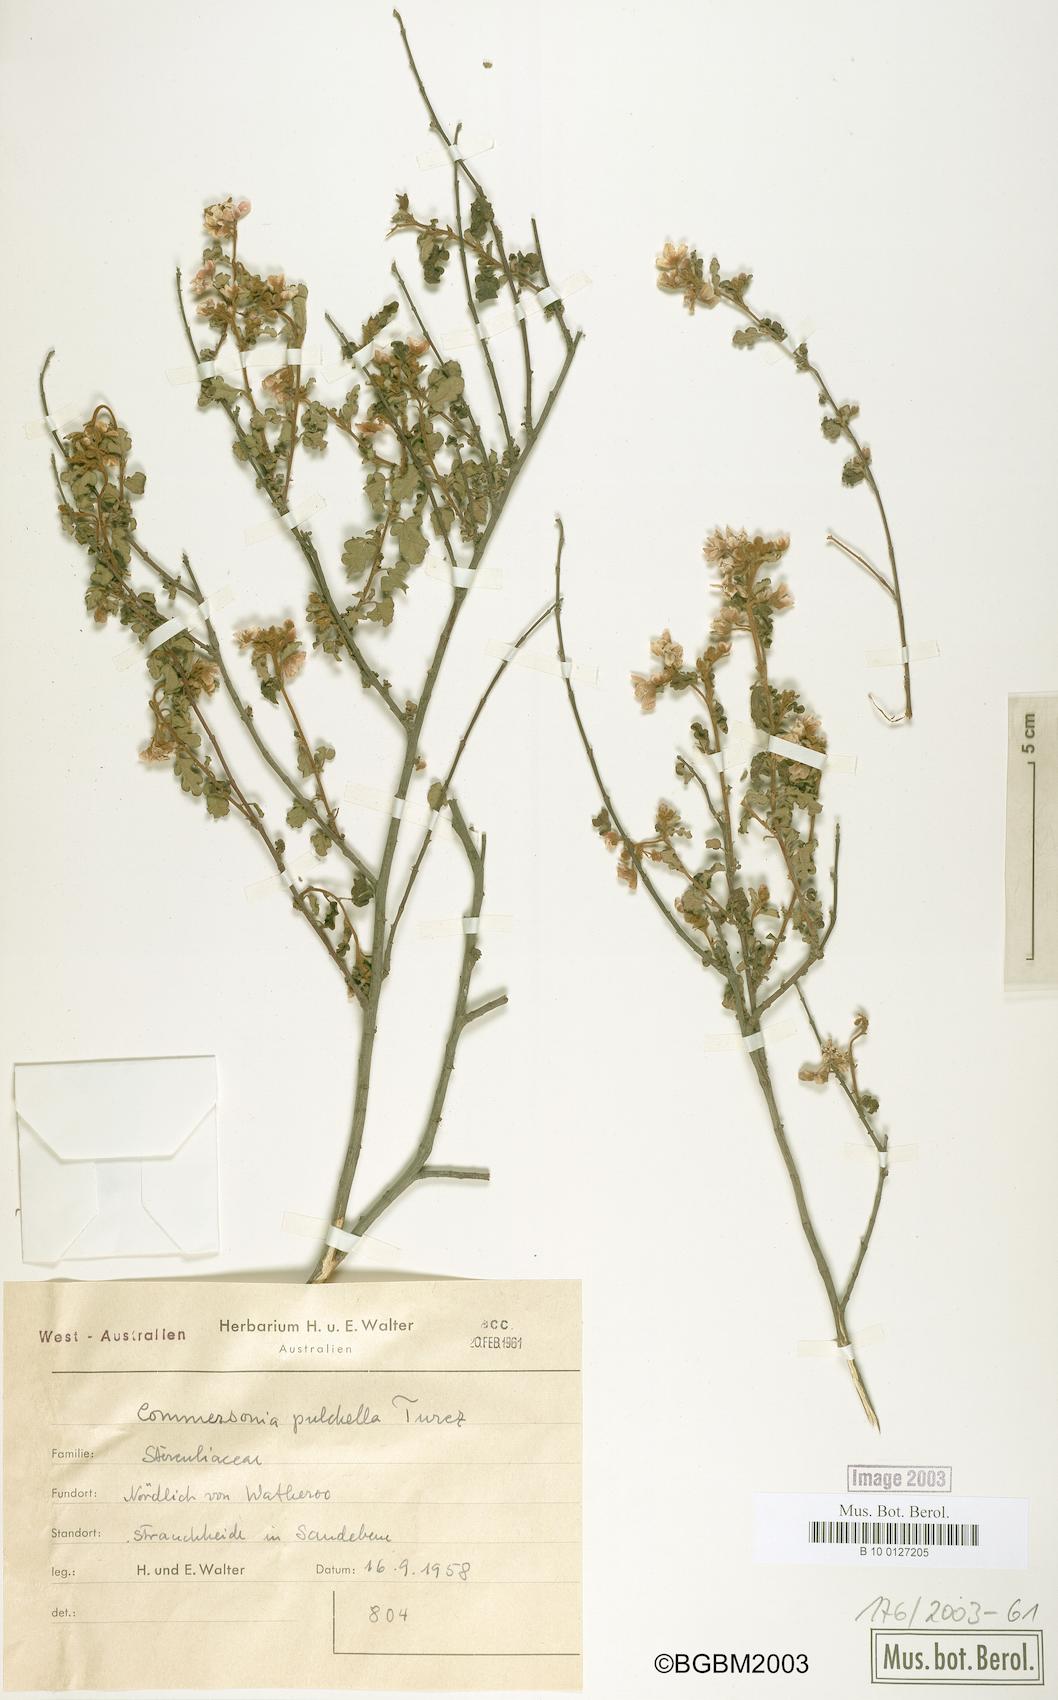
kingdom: Plantae
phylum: Tracheophyta
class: Magnoliopsida
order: Malvales
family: Malvaceae
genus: Androcalva
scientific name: Androcalva pulchella
